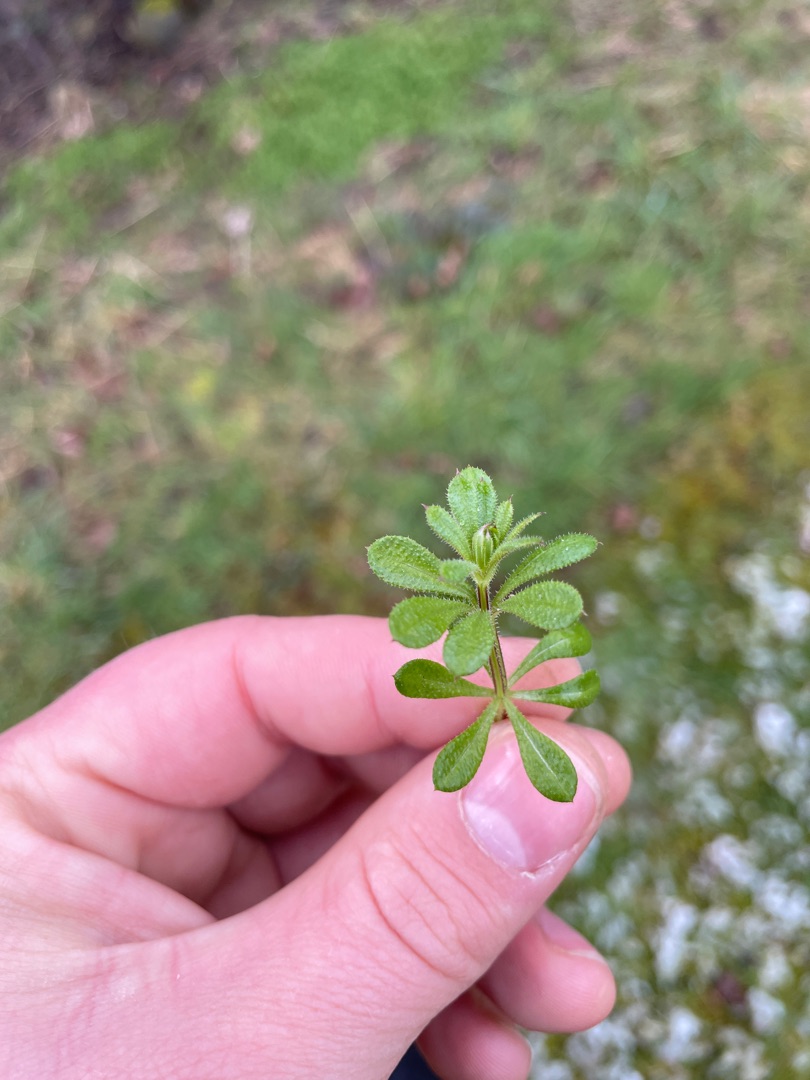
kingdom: Plantae
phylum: Tracheophyta
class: Magnoliopsida
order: Gentianales
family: Rubiaceae
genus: Galium
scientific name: Galium aparine
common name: Burre-snerre
